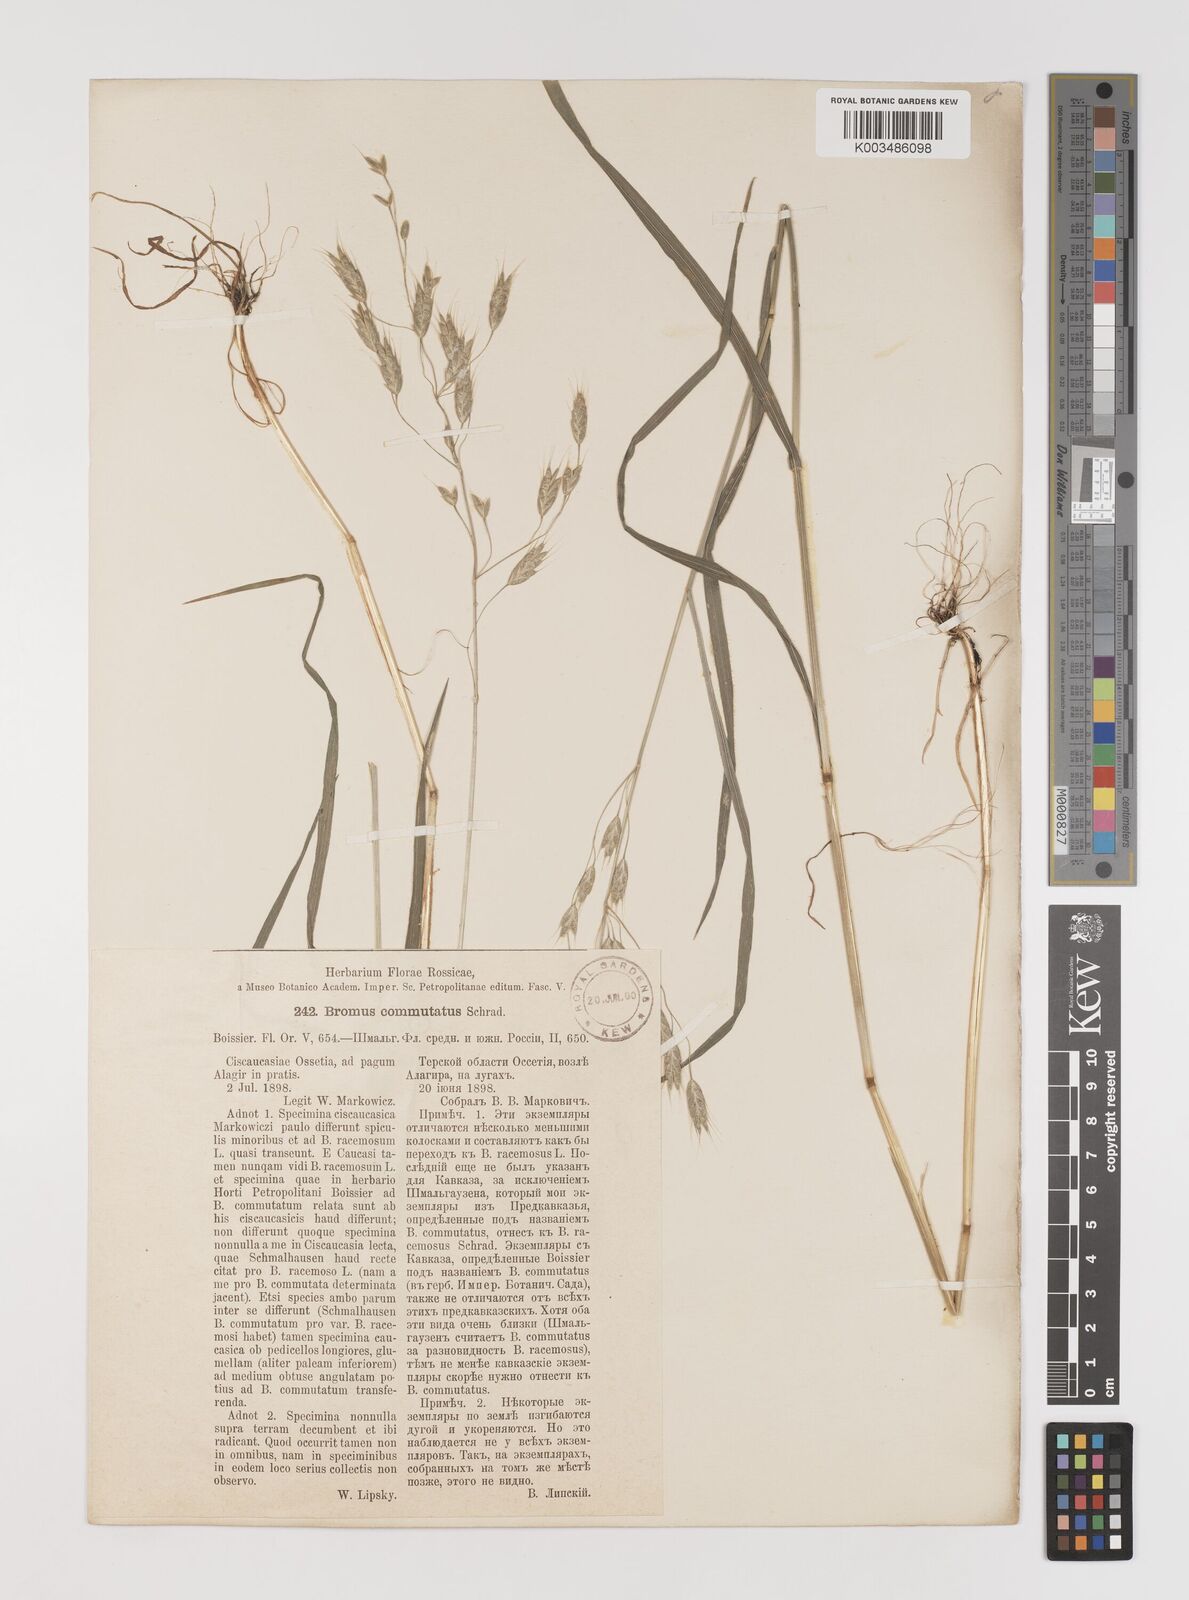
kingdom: Plantae
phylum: Tracheophyta
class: Liliopsida
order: Poales
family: Poaceae
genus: Bromus
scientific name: Bromus racemosus
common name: Bald brome
